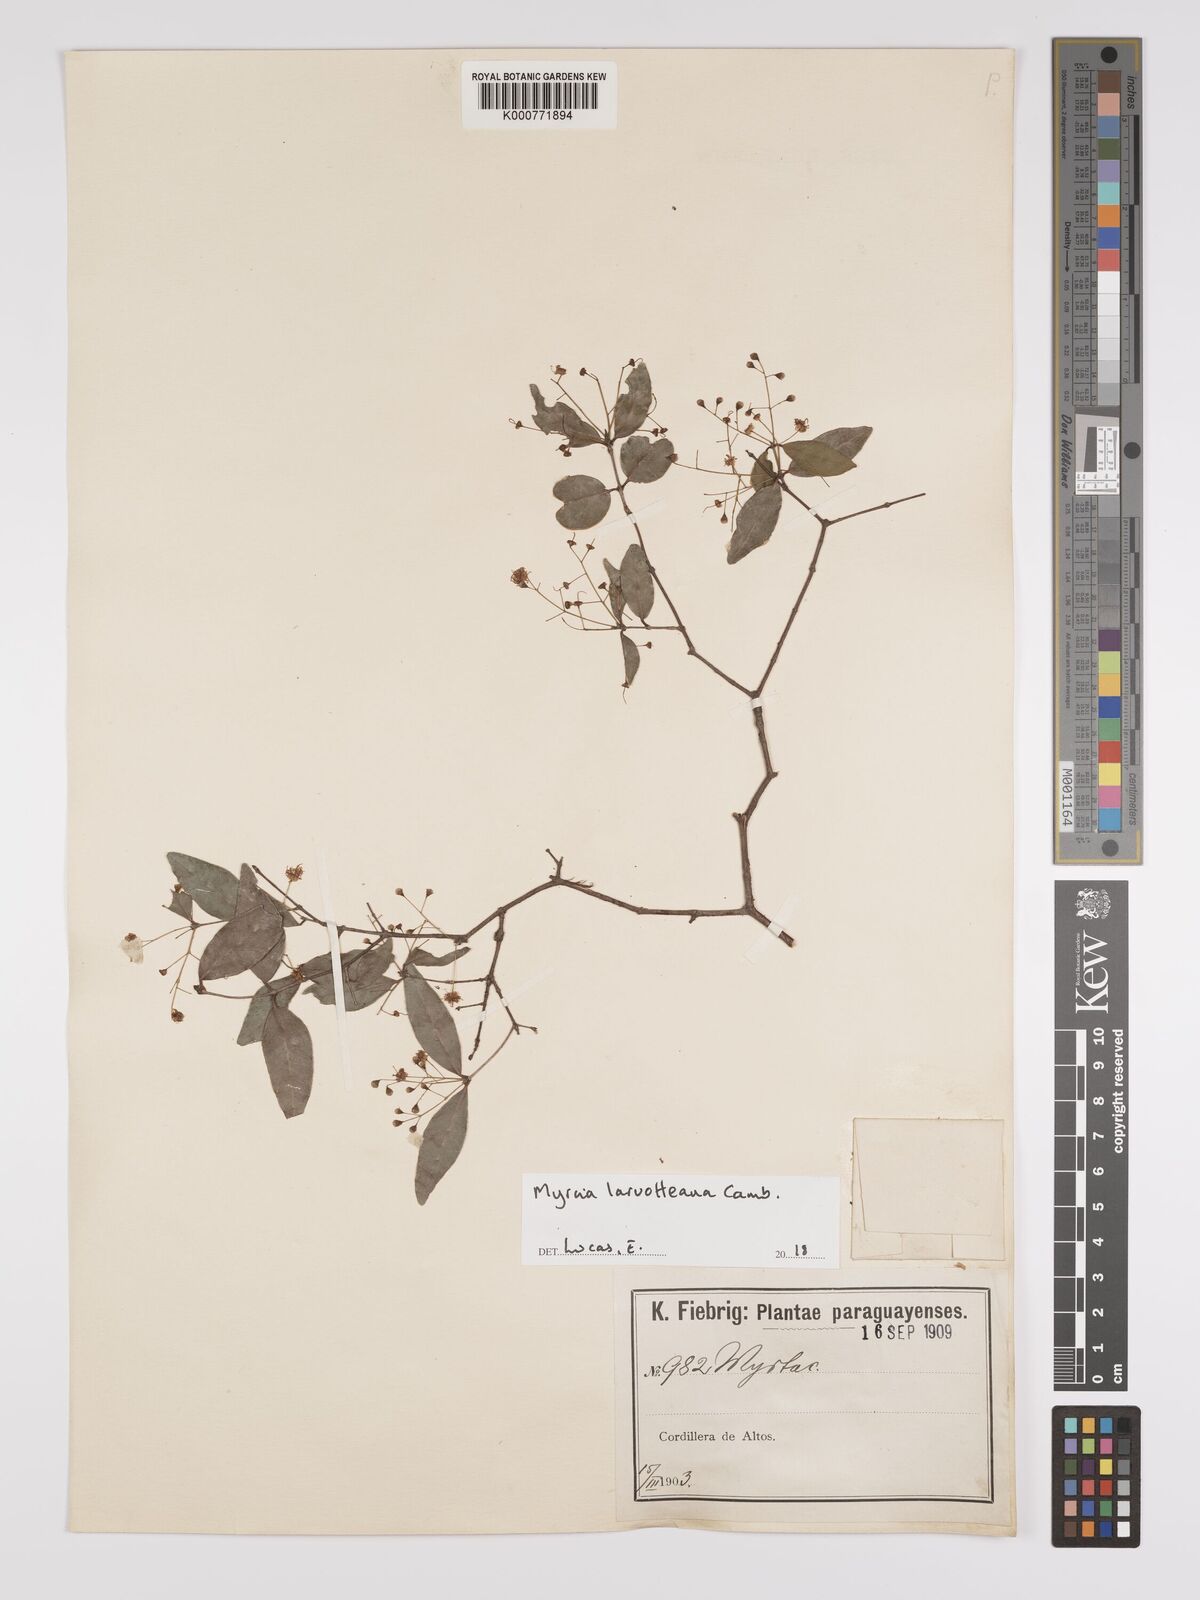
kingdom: Plantae
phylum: Tracheophyta
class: Magnoliopsida
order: Myrtales
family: Myrtaceae
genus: Myrcia
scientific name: Myrcia laruotteana
